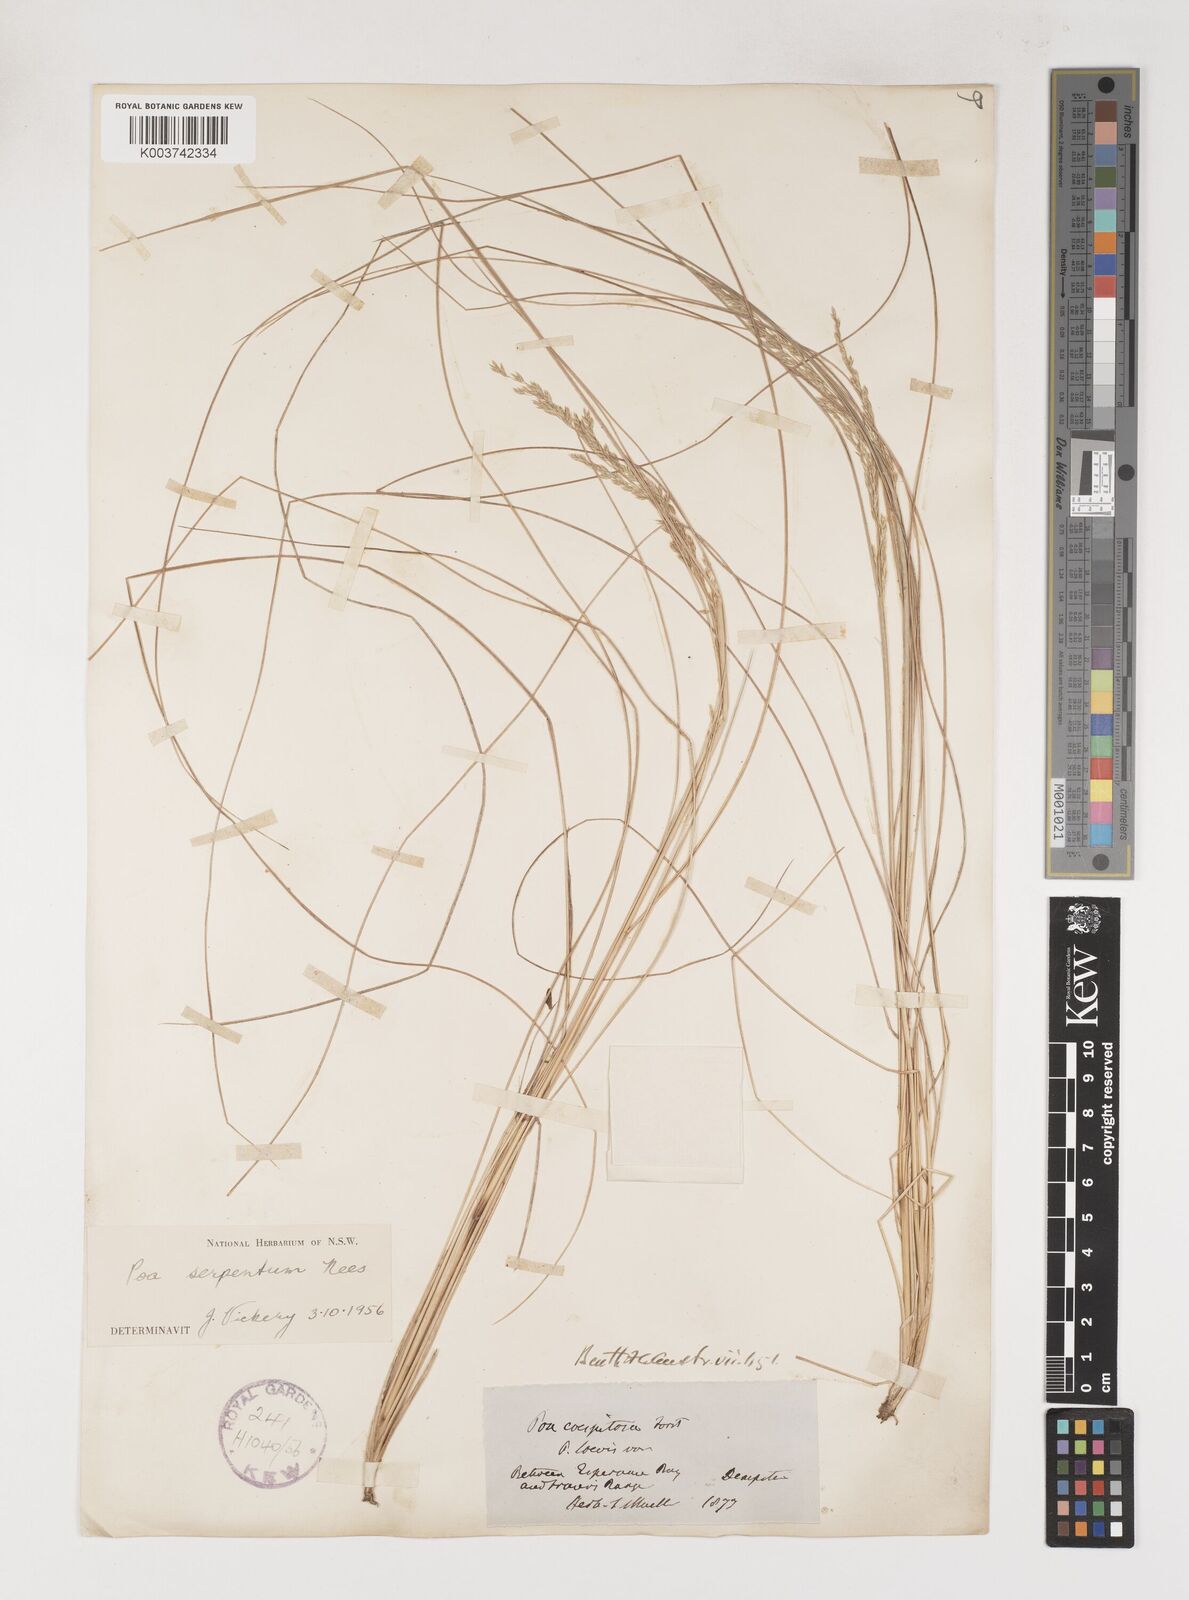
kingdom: Plantae
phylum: Tracheophyta
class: Liliopsida
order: Poales
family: Poaceae
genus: Poa
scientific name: Poa porphyroclados
